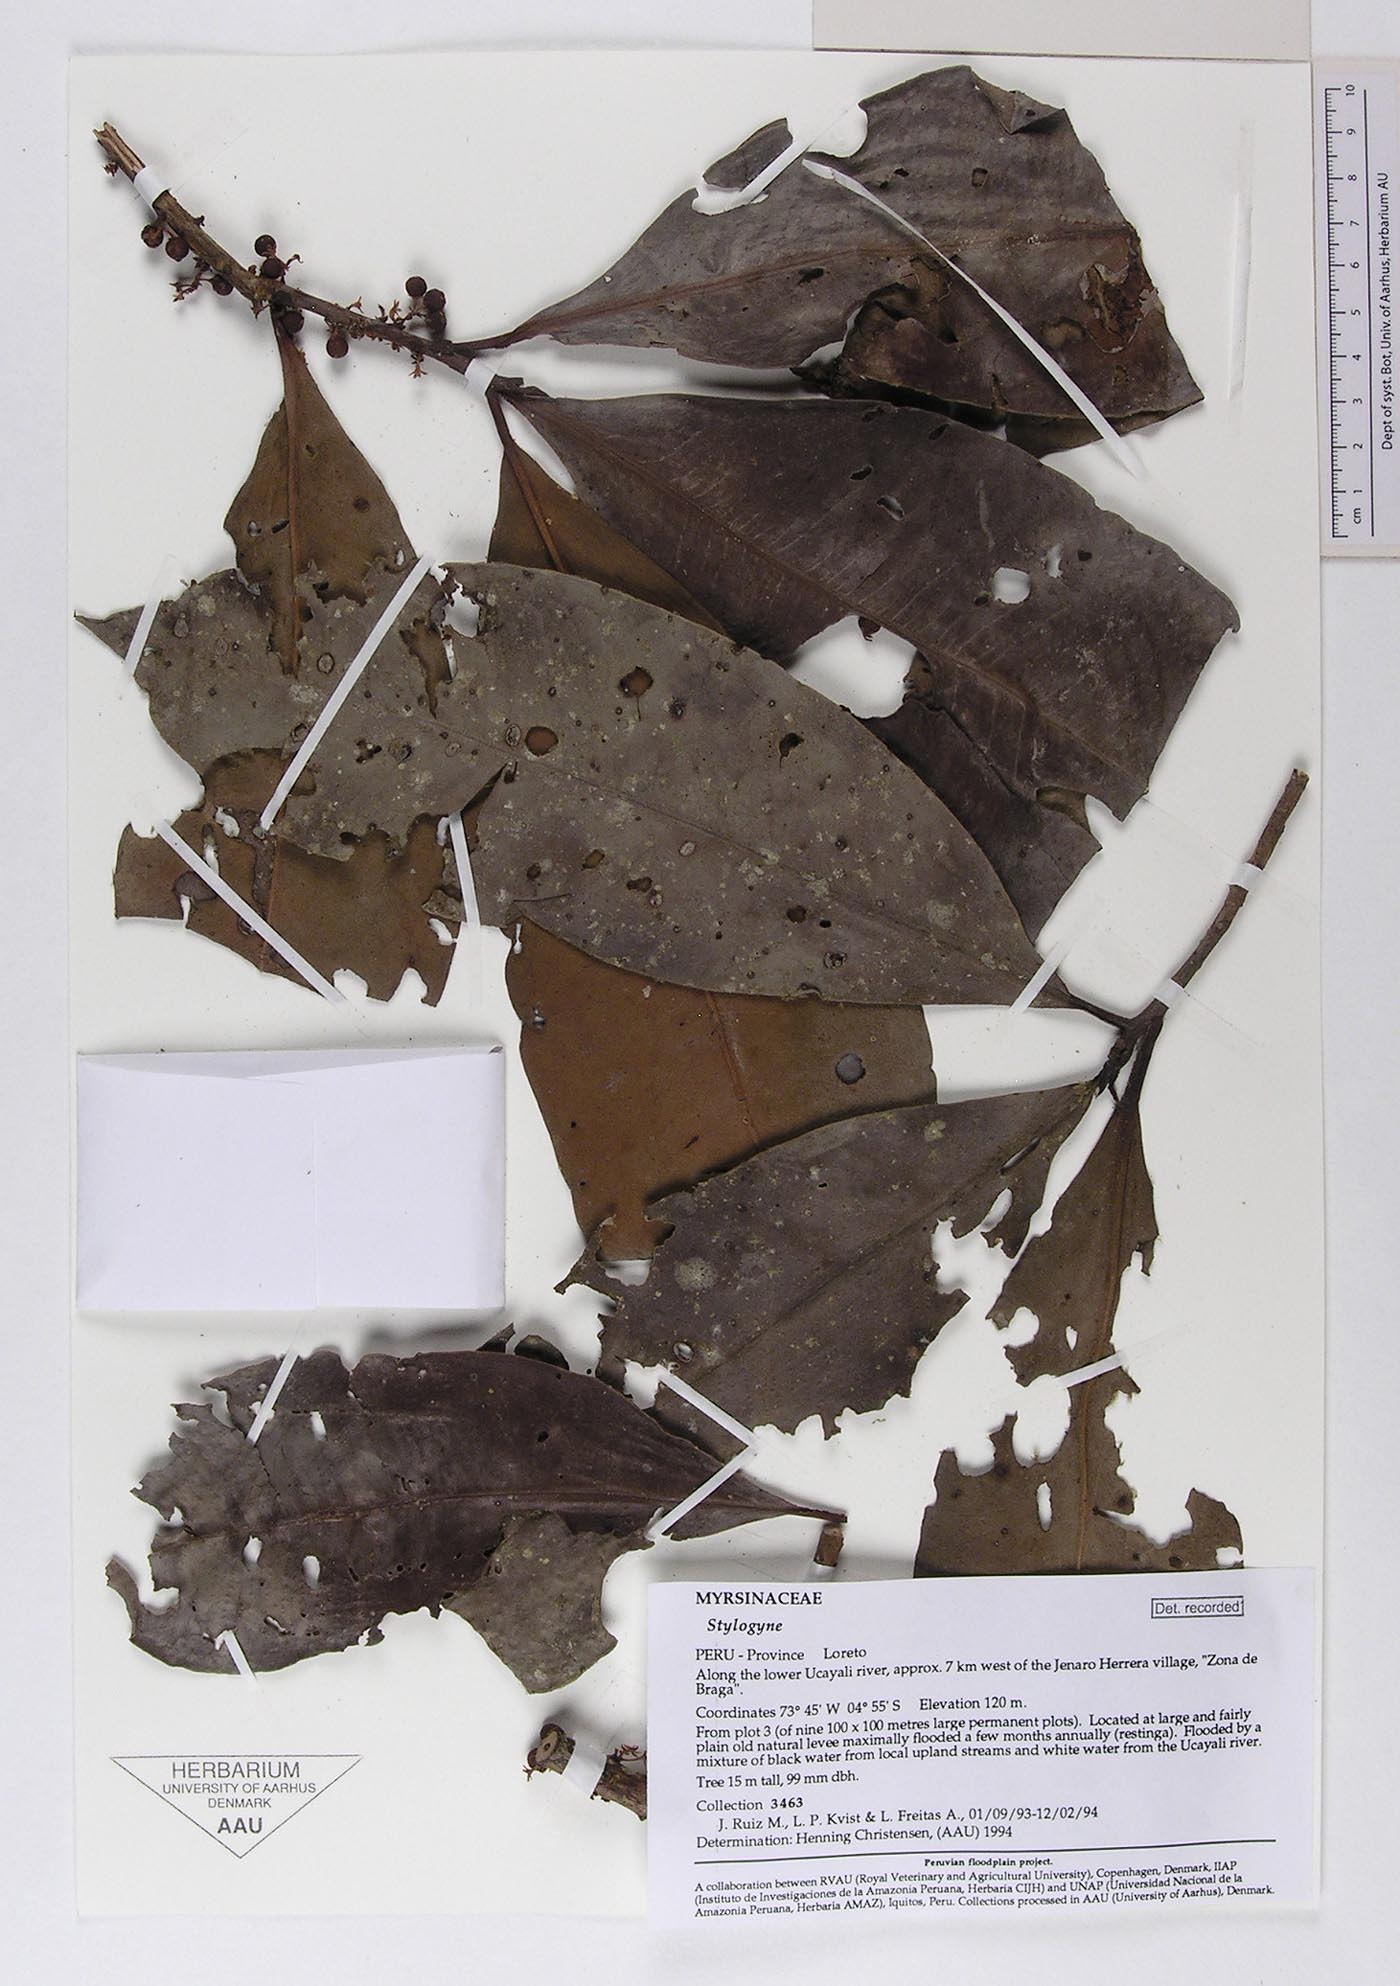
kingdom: Plantae
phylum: Tracheophyta
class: Magnoliopsida
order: Ericales
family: Primulaceae
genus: Stylogyne
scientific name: Stylogyne
